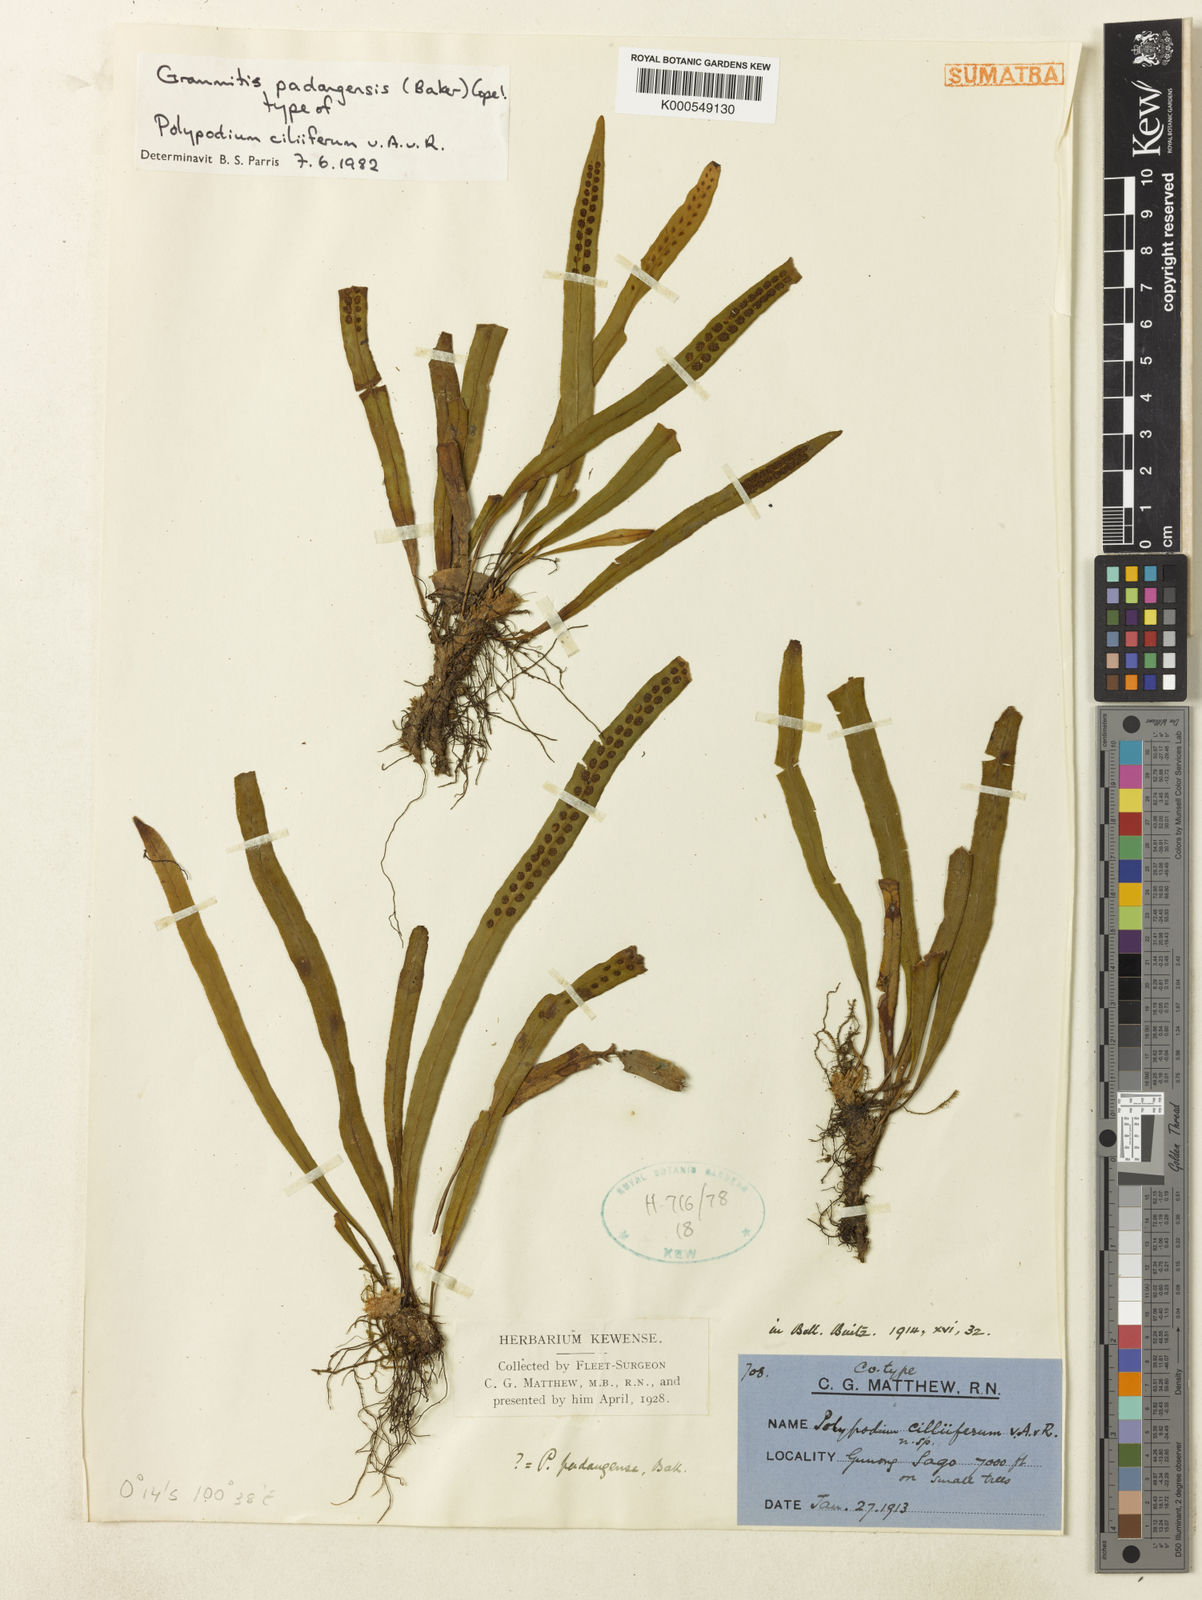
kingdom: Plantae
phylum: Tracheophyta
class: Polypodiopsida
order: Polypodiales
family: Polypodiaceae
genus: Oreogrammitis
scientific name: Oreogrammitis padangensis
